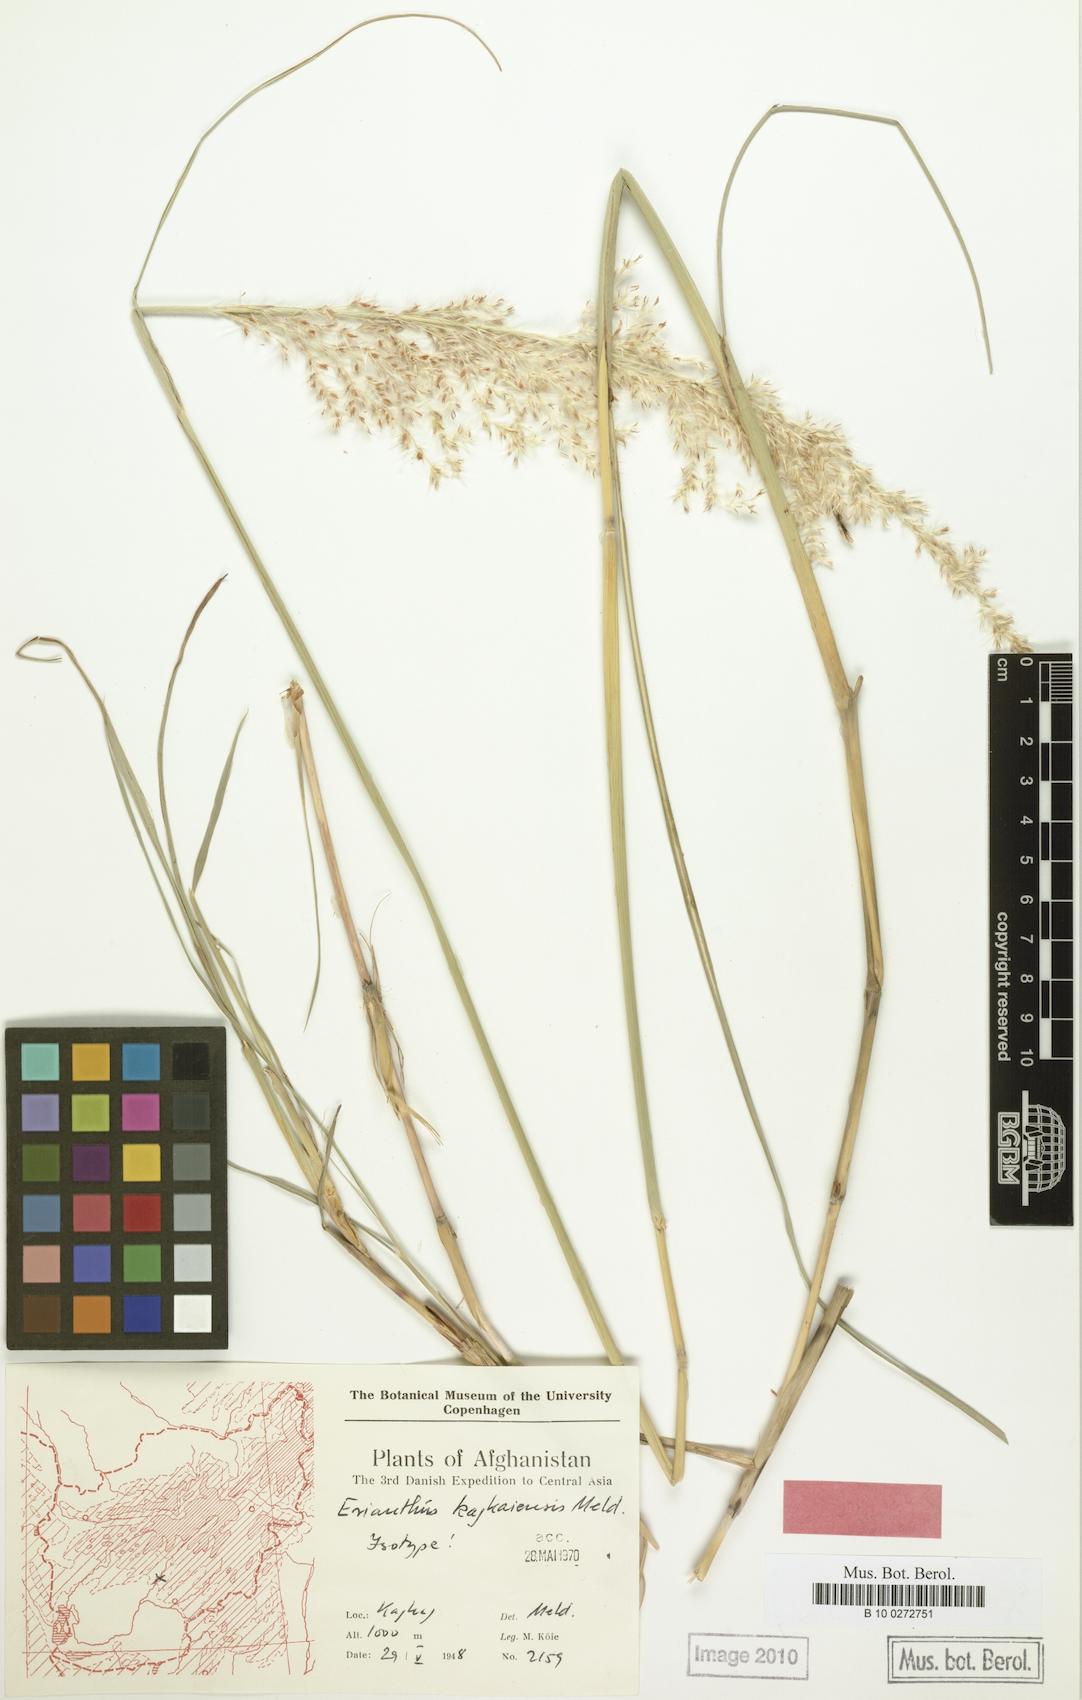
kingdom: Plantae
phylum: Tracheophyta
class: Liliopsida
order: Poales
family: Poaceae
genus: Saccharum
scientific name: Saccharum kajkaiense
